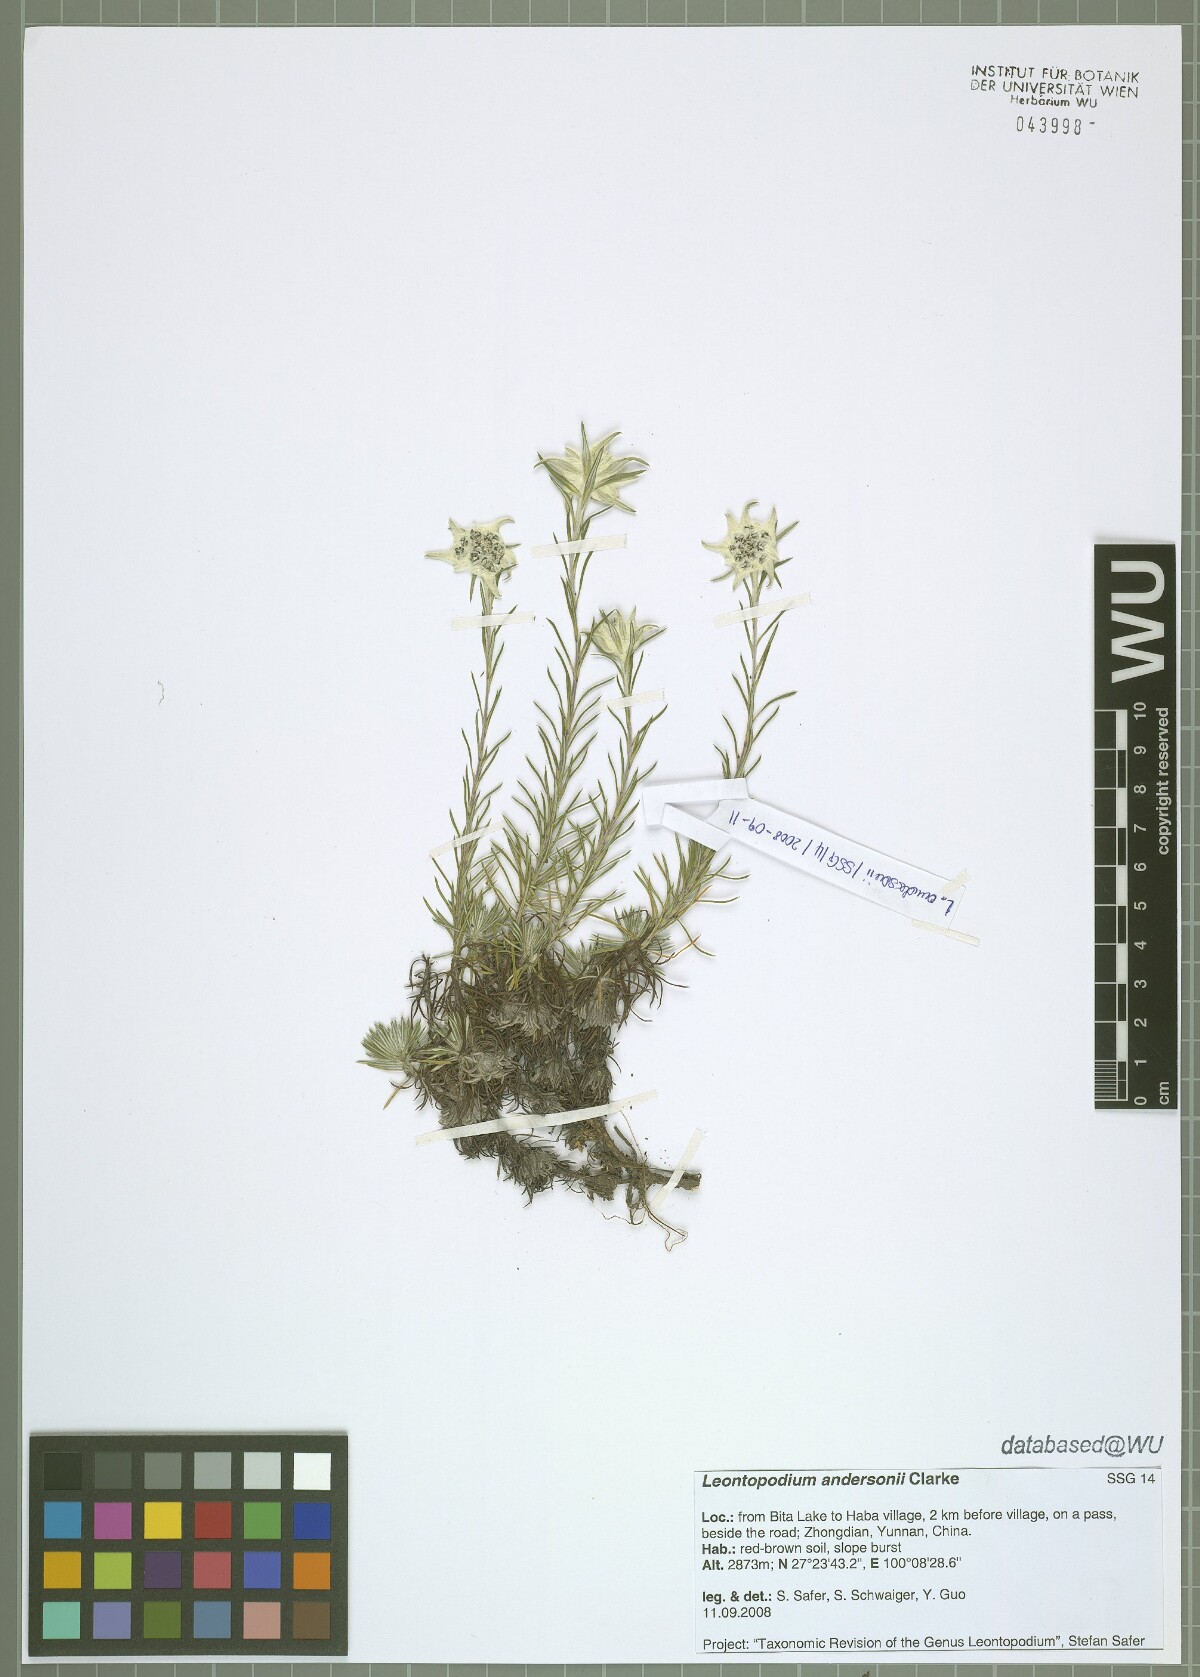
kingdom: Plantae
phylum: Tracheophyta
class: Magnoliopsida
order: Asterales
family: Asteraceae
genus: Leontopodium
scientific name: Leontopodium andersonii
